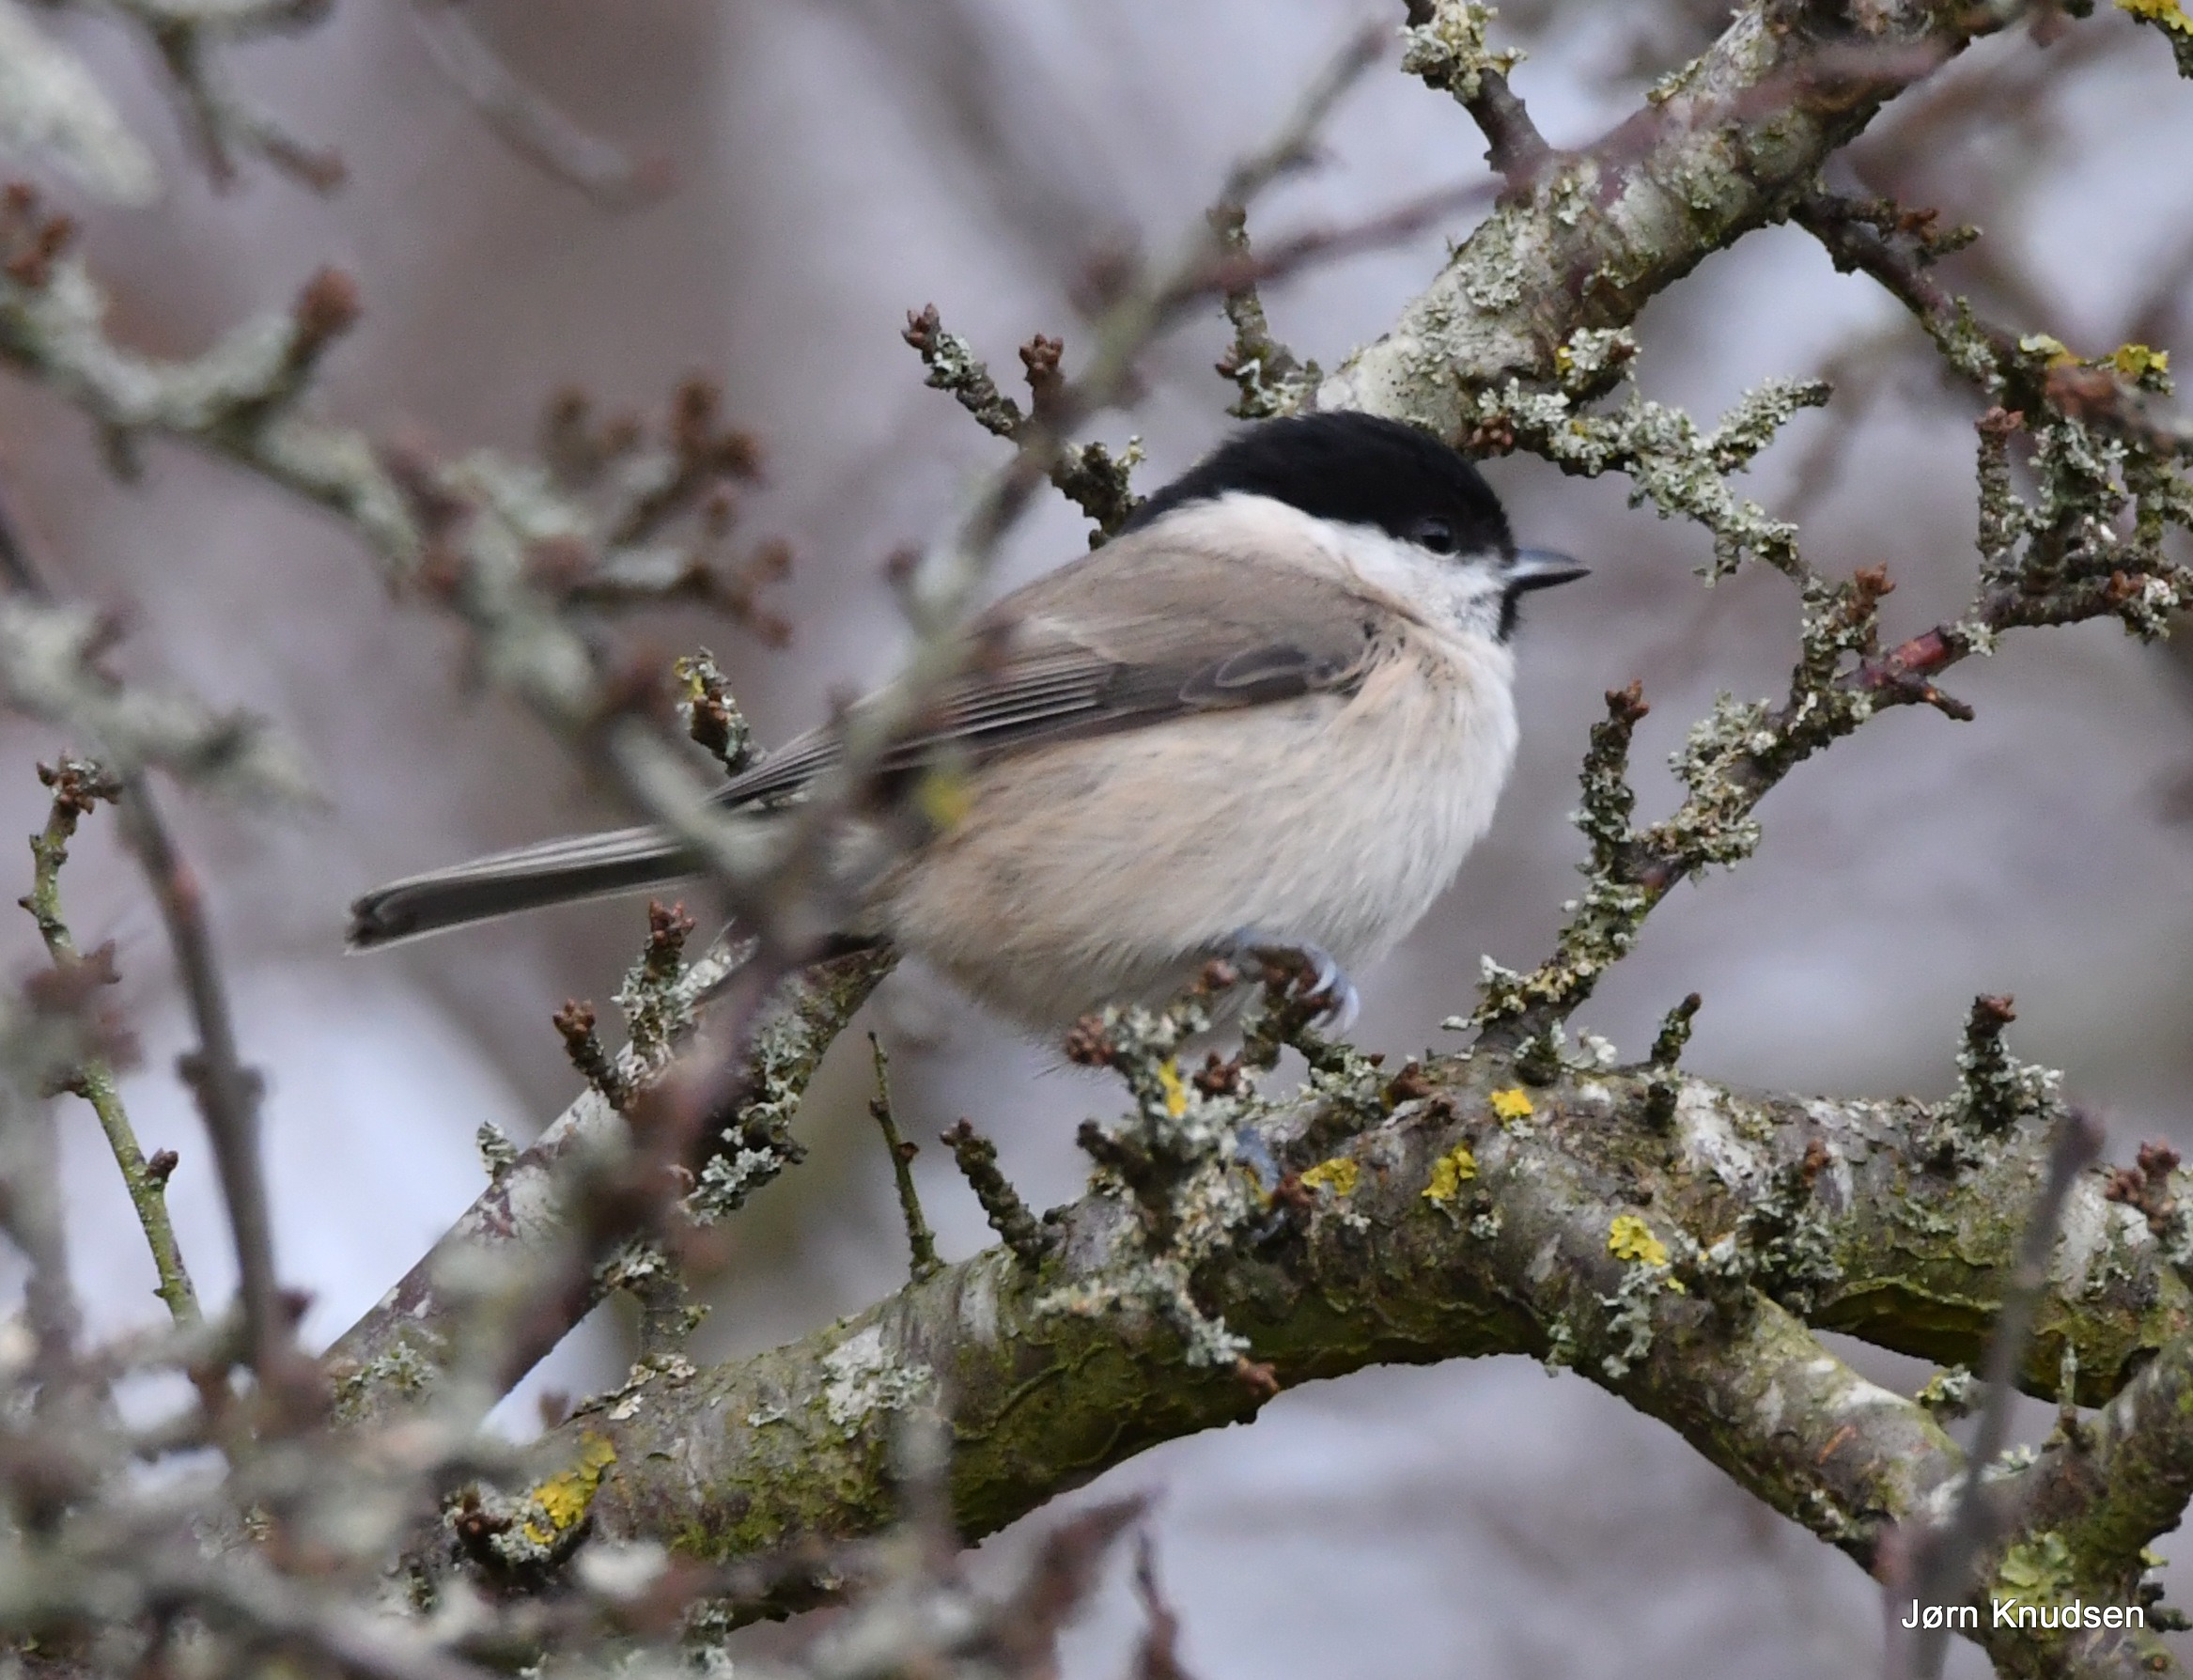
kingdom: Animalia
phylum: Chordata
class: Aves
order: Passeriformes
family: Paridae
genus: Poecile
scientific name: Poecile palustris
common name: Sumpmejse
